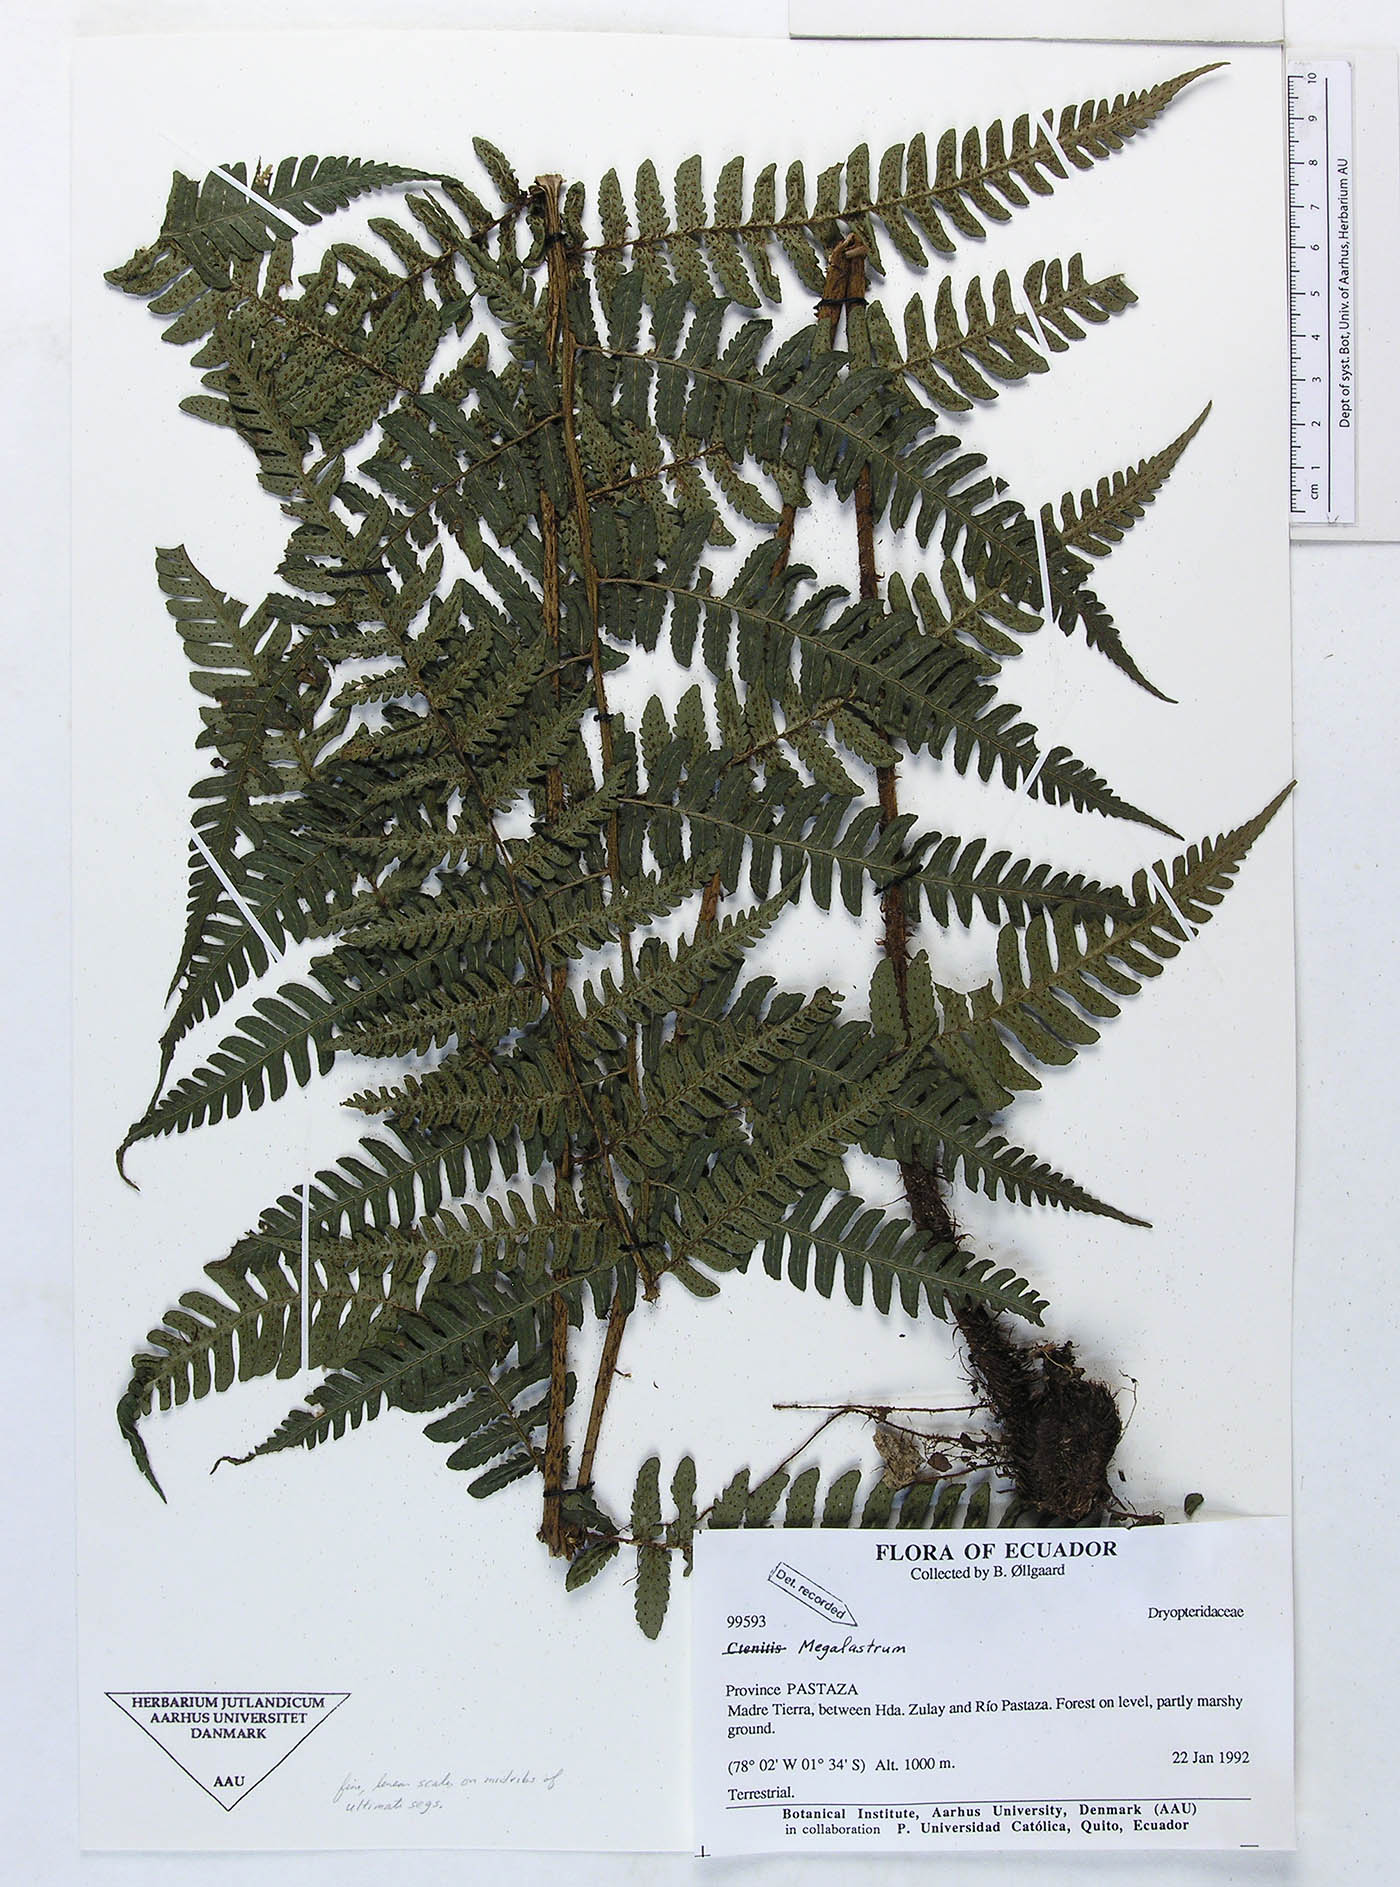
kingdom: Plantae
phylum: Tracheophyta
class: Polypodiopsida
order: Polypodiales
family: Dryopteridaceae
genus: Megalastrum
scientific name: Megalastrum biseriale
